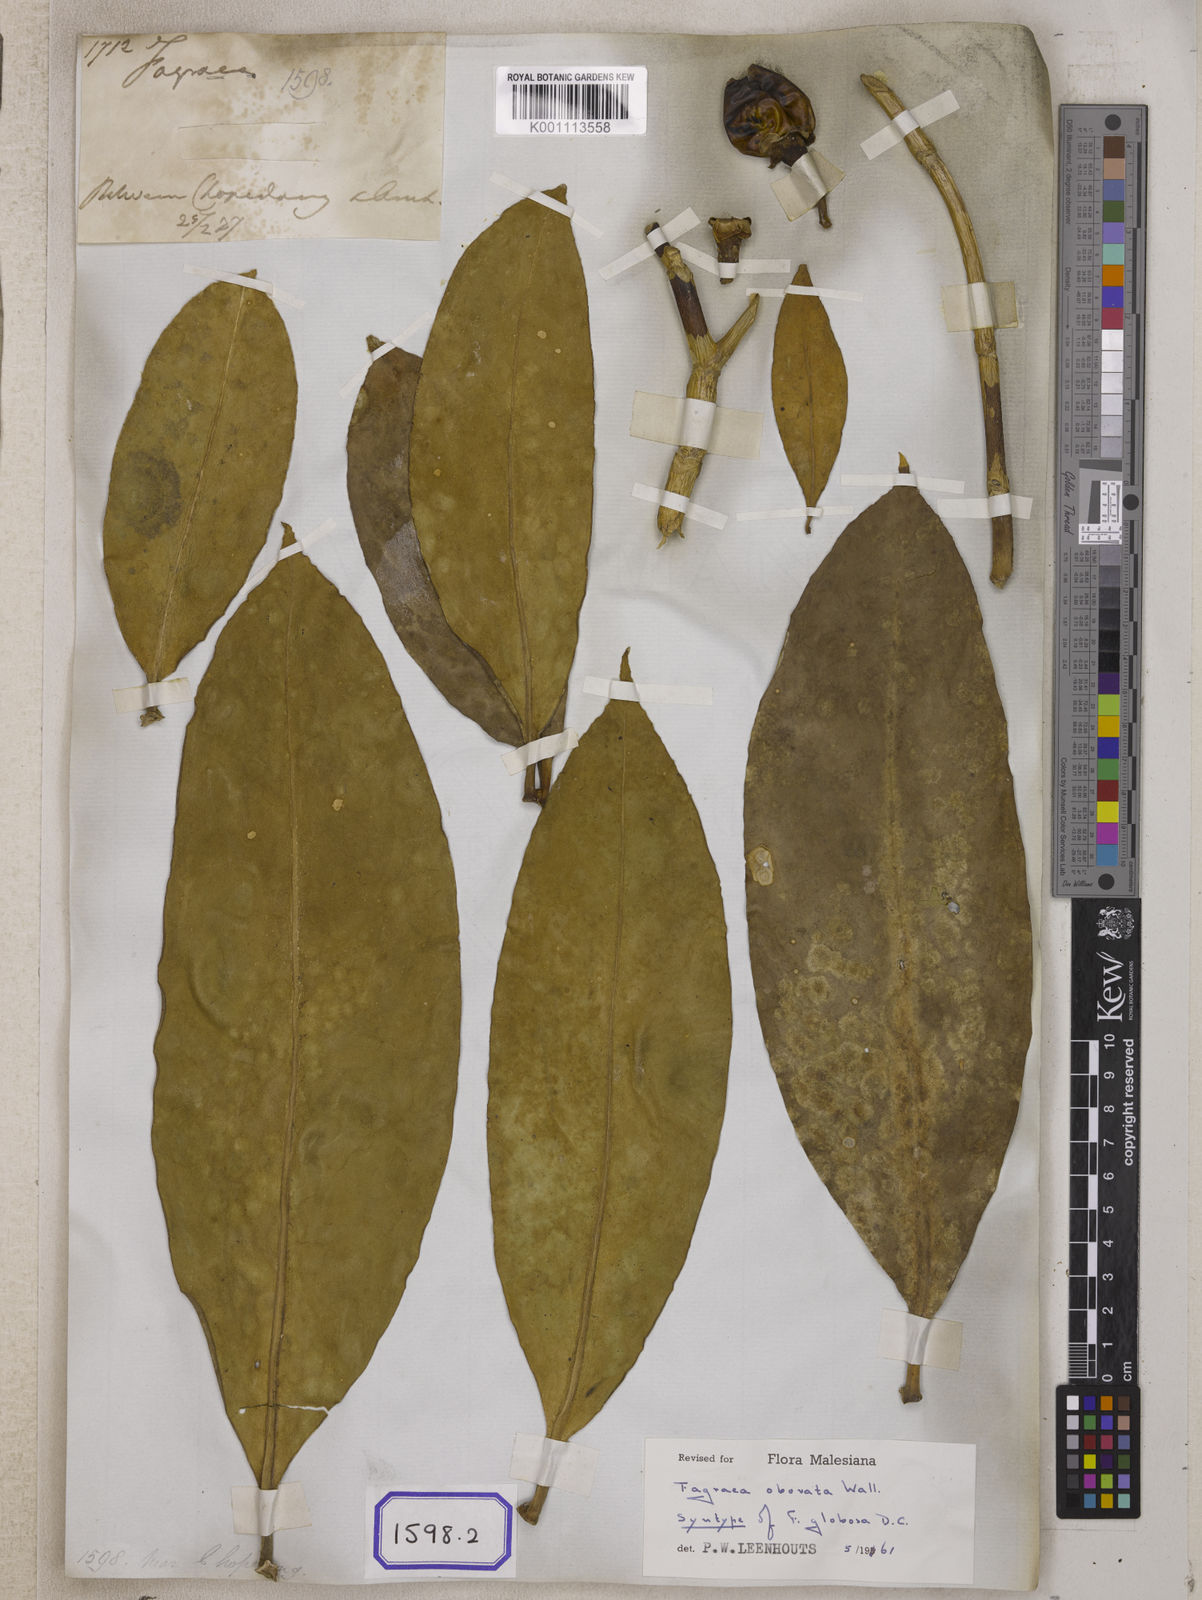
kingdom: Plantae
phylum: Tracheophyta
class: Magnoliopsida
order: Gentianales
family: Gentianaceae
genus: Fagraea
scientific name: Fagraea
